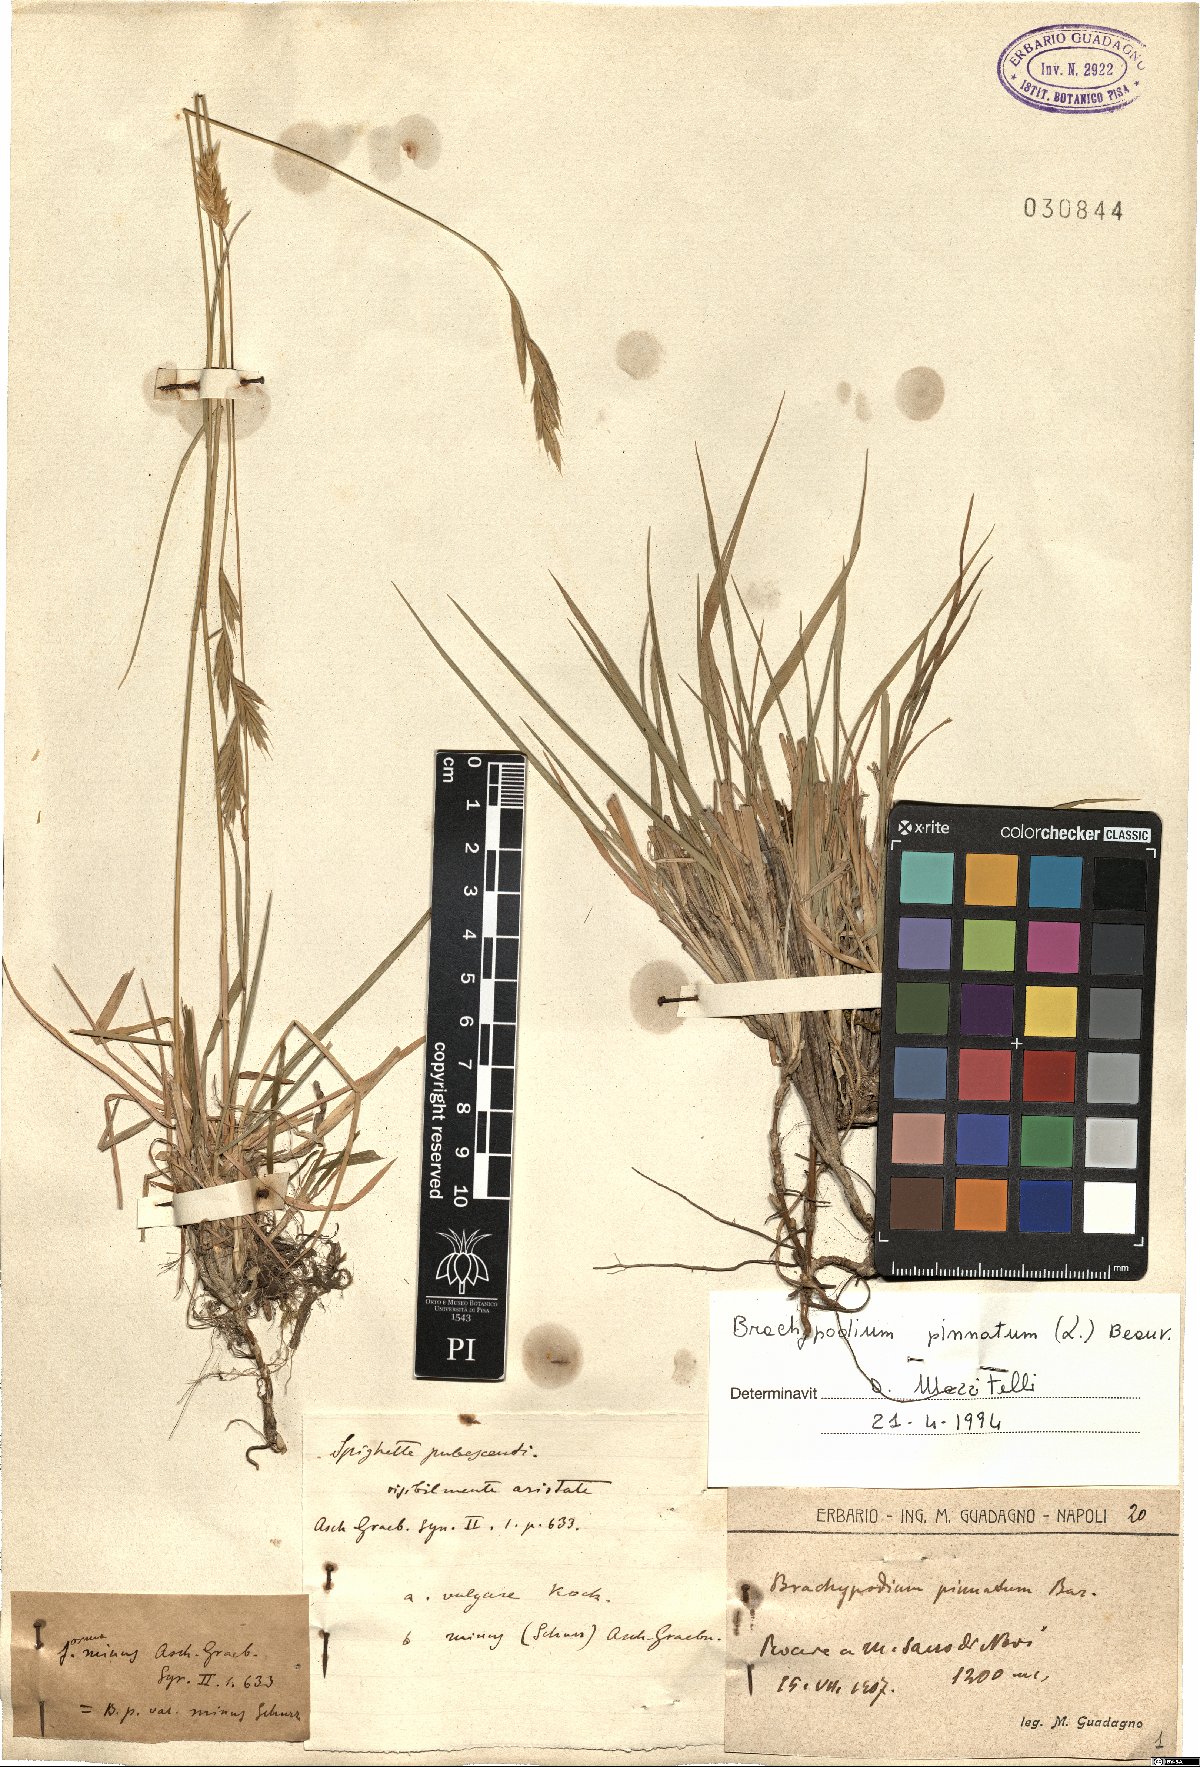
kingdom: Plantae
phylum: Tracheophyta
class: Liliopsida
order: Poales
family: Poaceae
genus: Brachypodium
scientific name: Brachypodium pinnatum
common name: Tor grass
